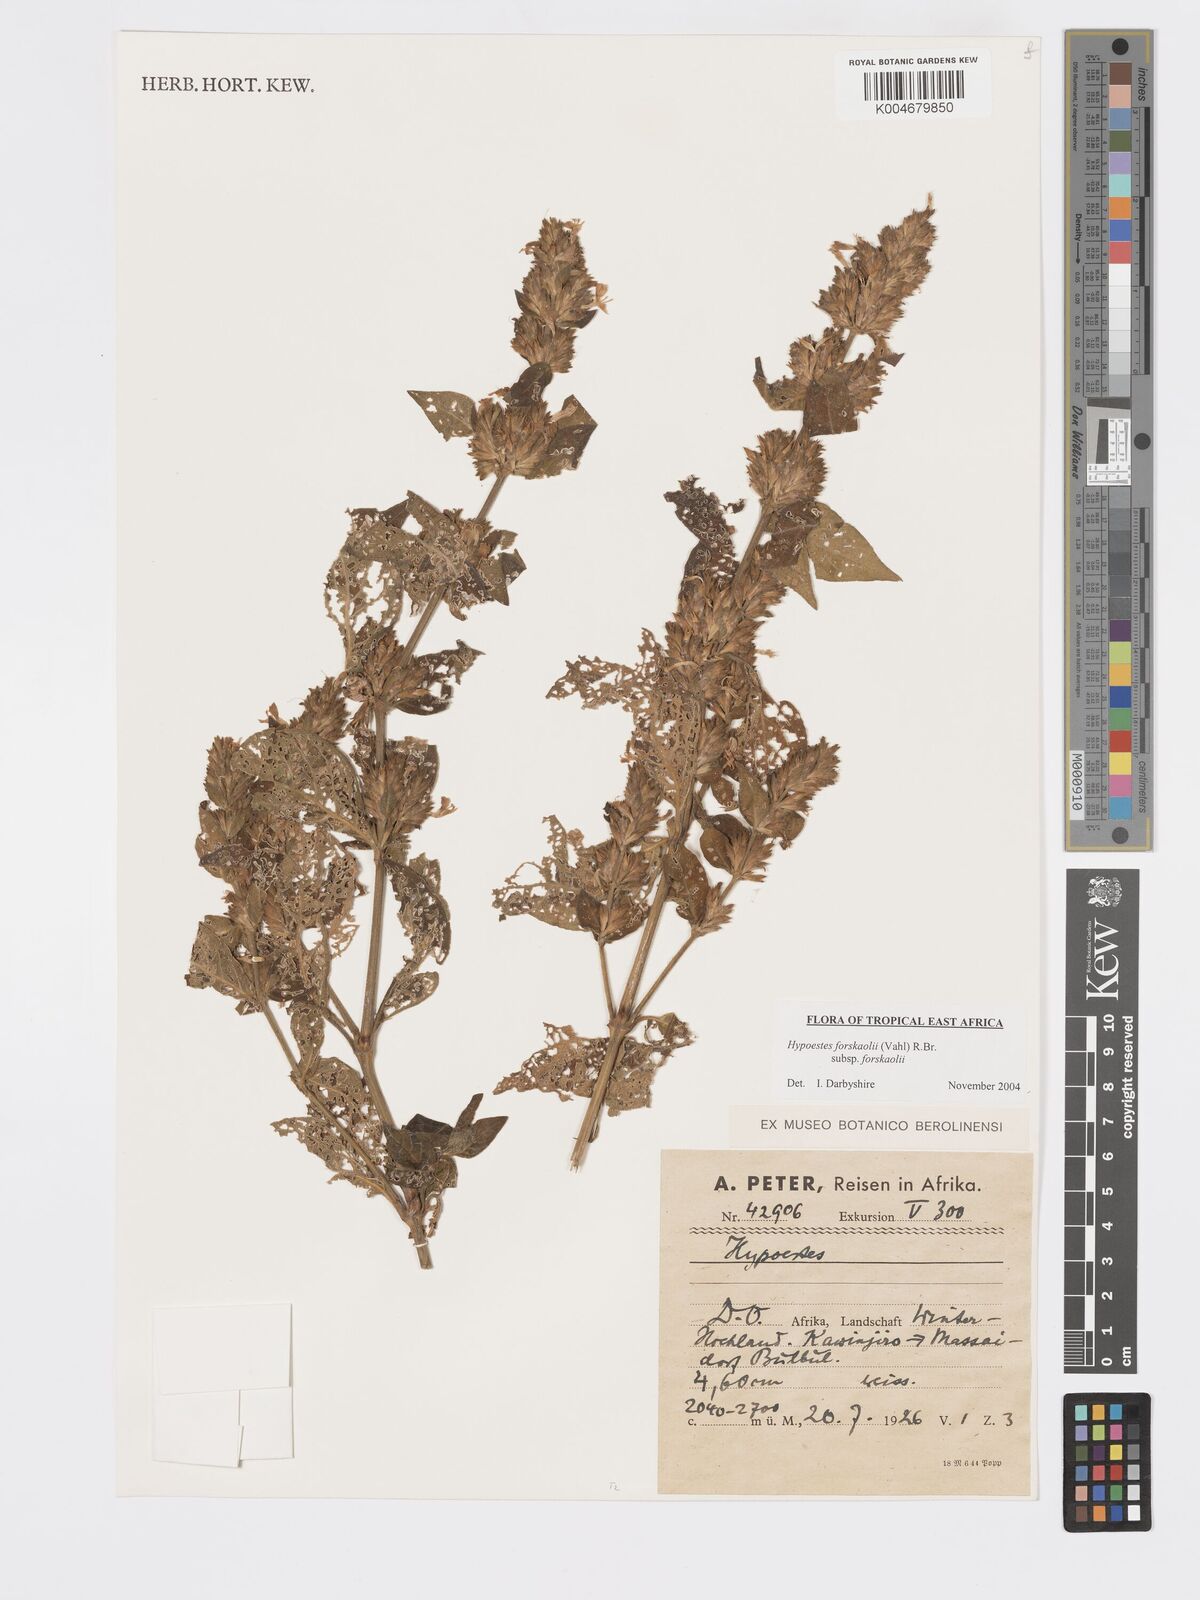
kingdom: Plantae
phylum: Tracheophyta
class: Magnoliopsida
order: Lamiales
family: Acanthaceae
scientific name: Acanthaceae
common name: Acanthaceae
